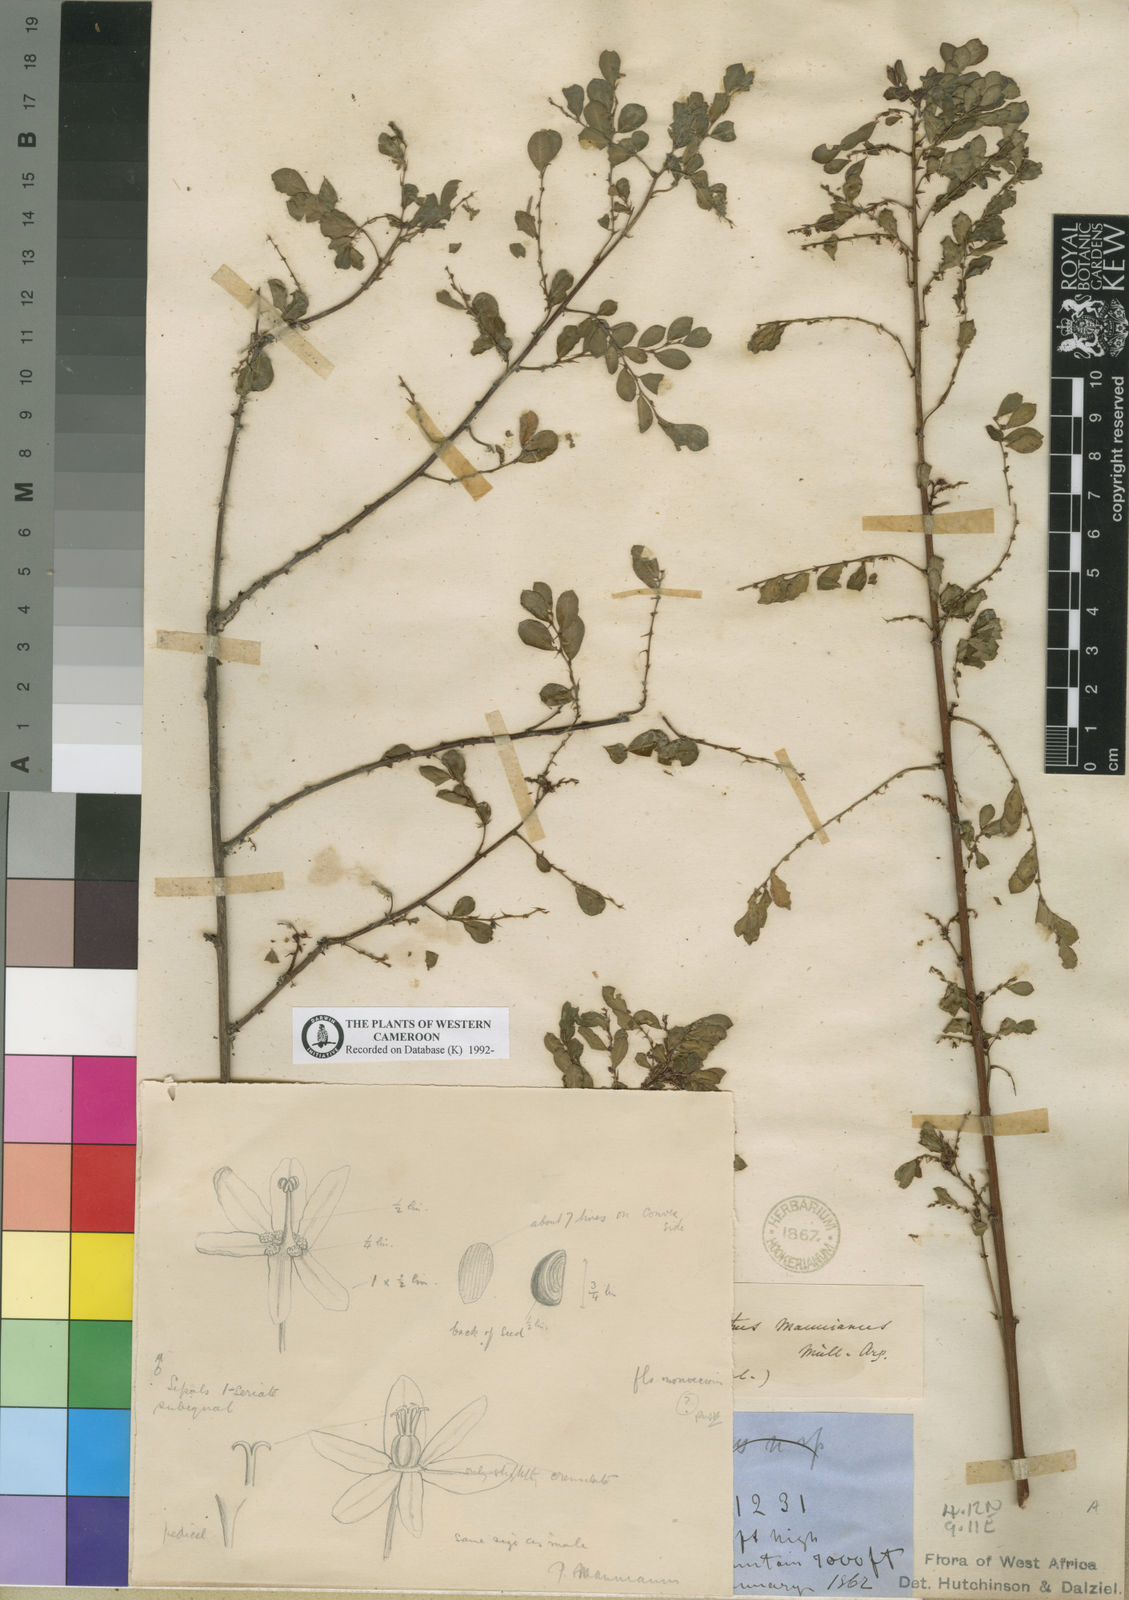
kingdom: Plantae
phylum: Tracheophyta
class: Magnoliopsida
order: Malpighiales
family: Phyllanthaceae
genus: Phyllanthus
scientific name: Phyllanthus
